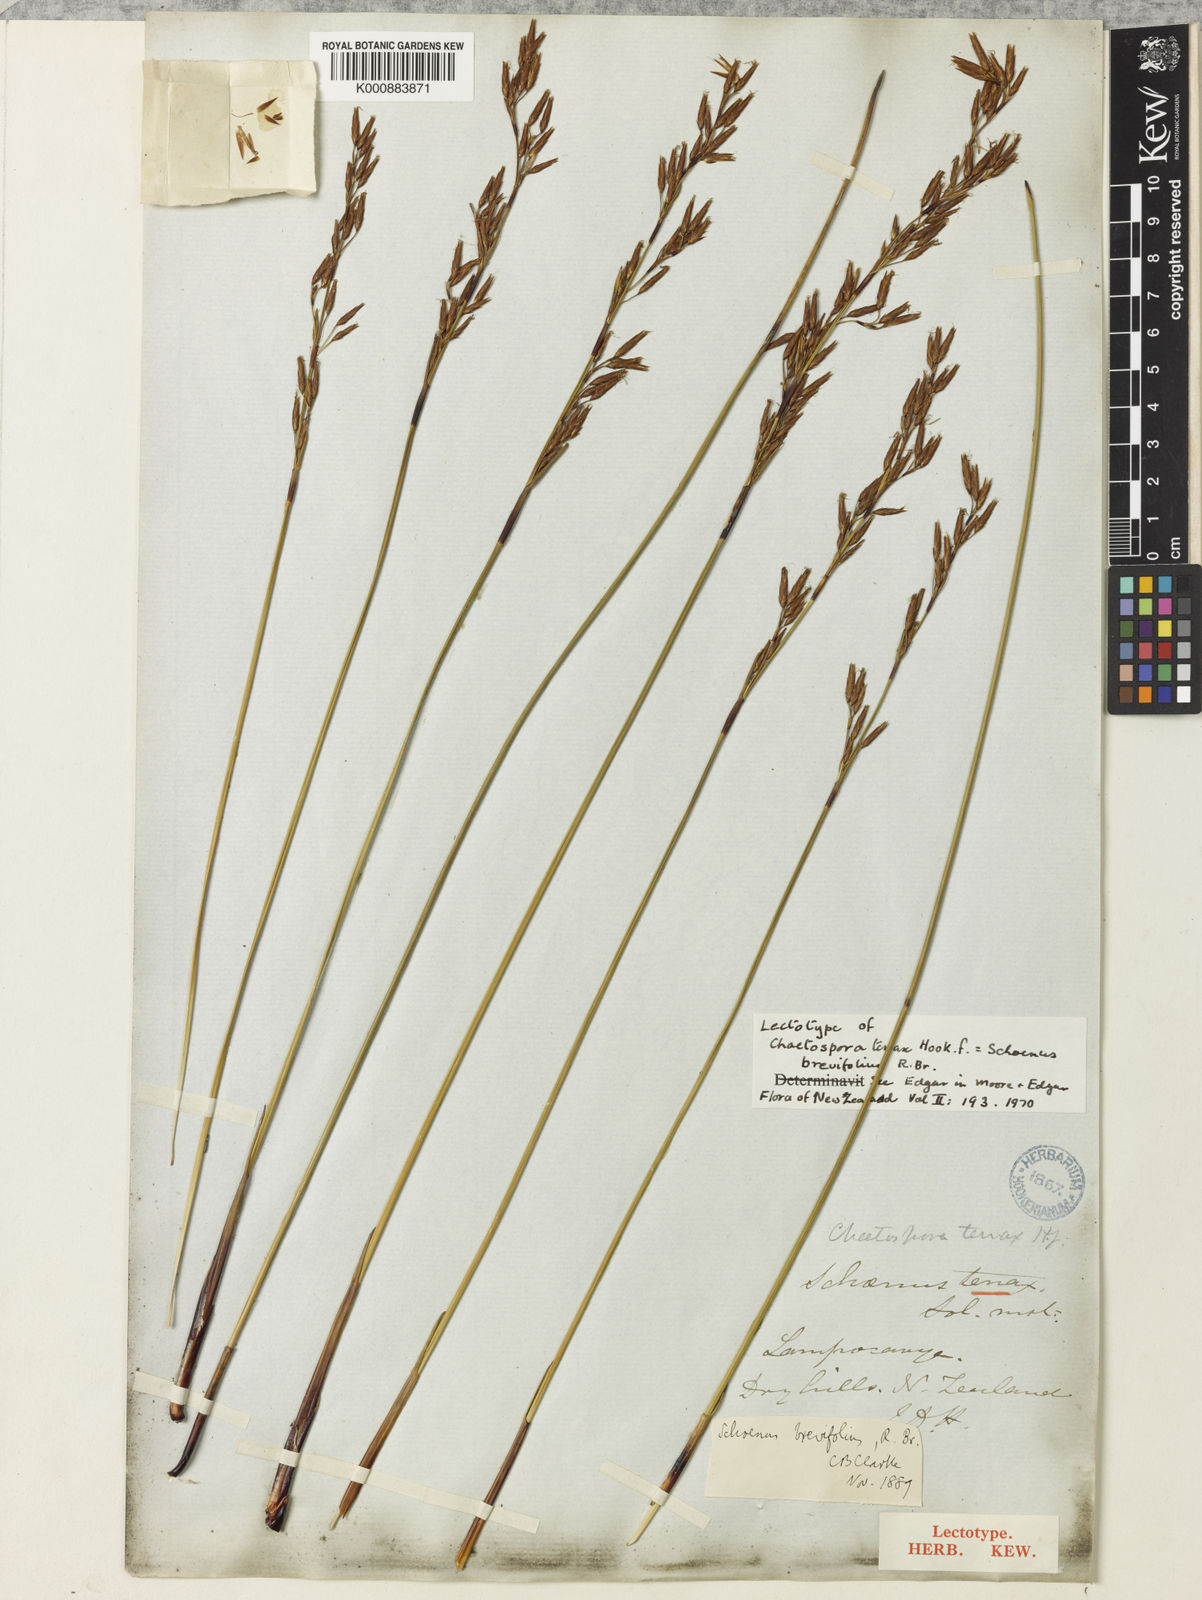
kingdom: Plantae
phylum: Tracheophyta
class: Liliopsida
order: Poales
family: Cyperaceae
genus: Schoenus
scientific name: Schoenus brevifolius
